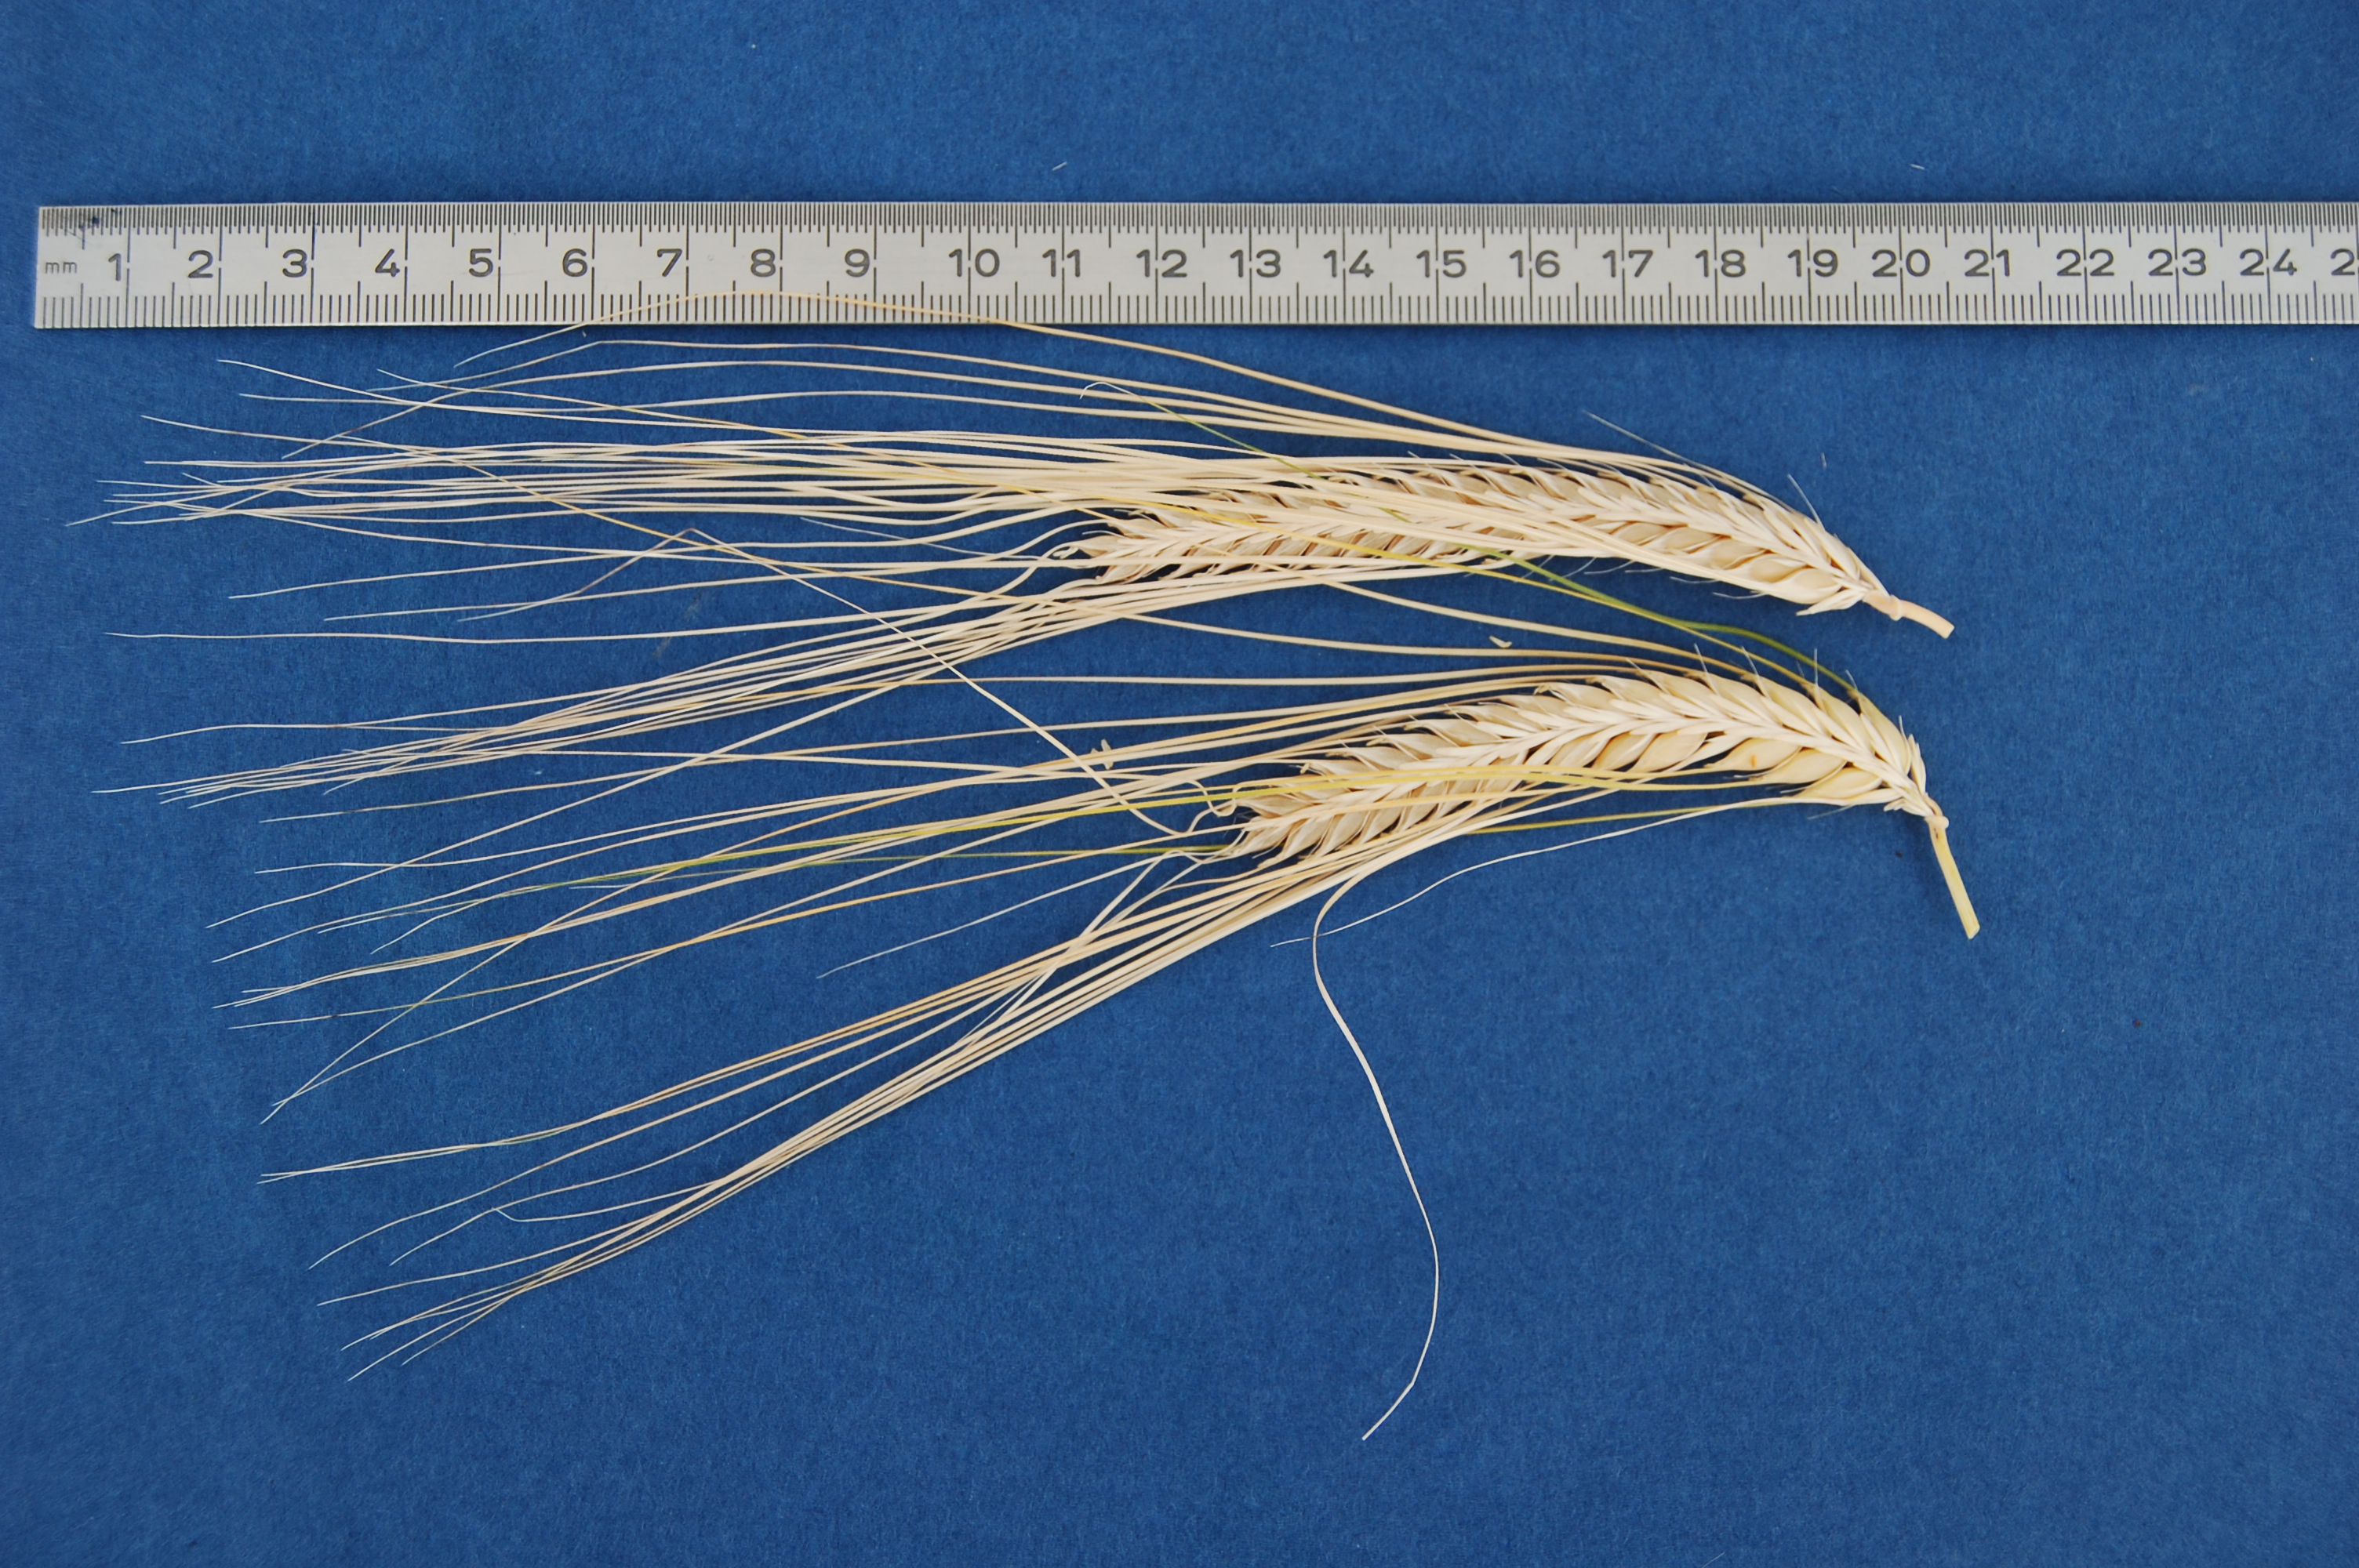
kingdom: Plantae
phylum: Tracheophyta
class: Liliopsida
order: Poales
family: Poaceae
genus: Hordeum
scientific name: Hordeum vulgare
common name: Common barley
